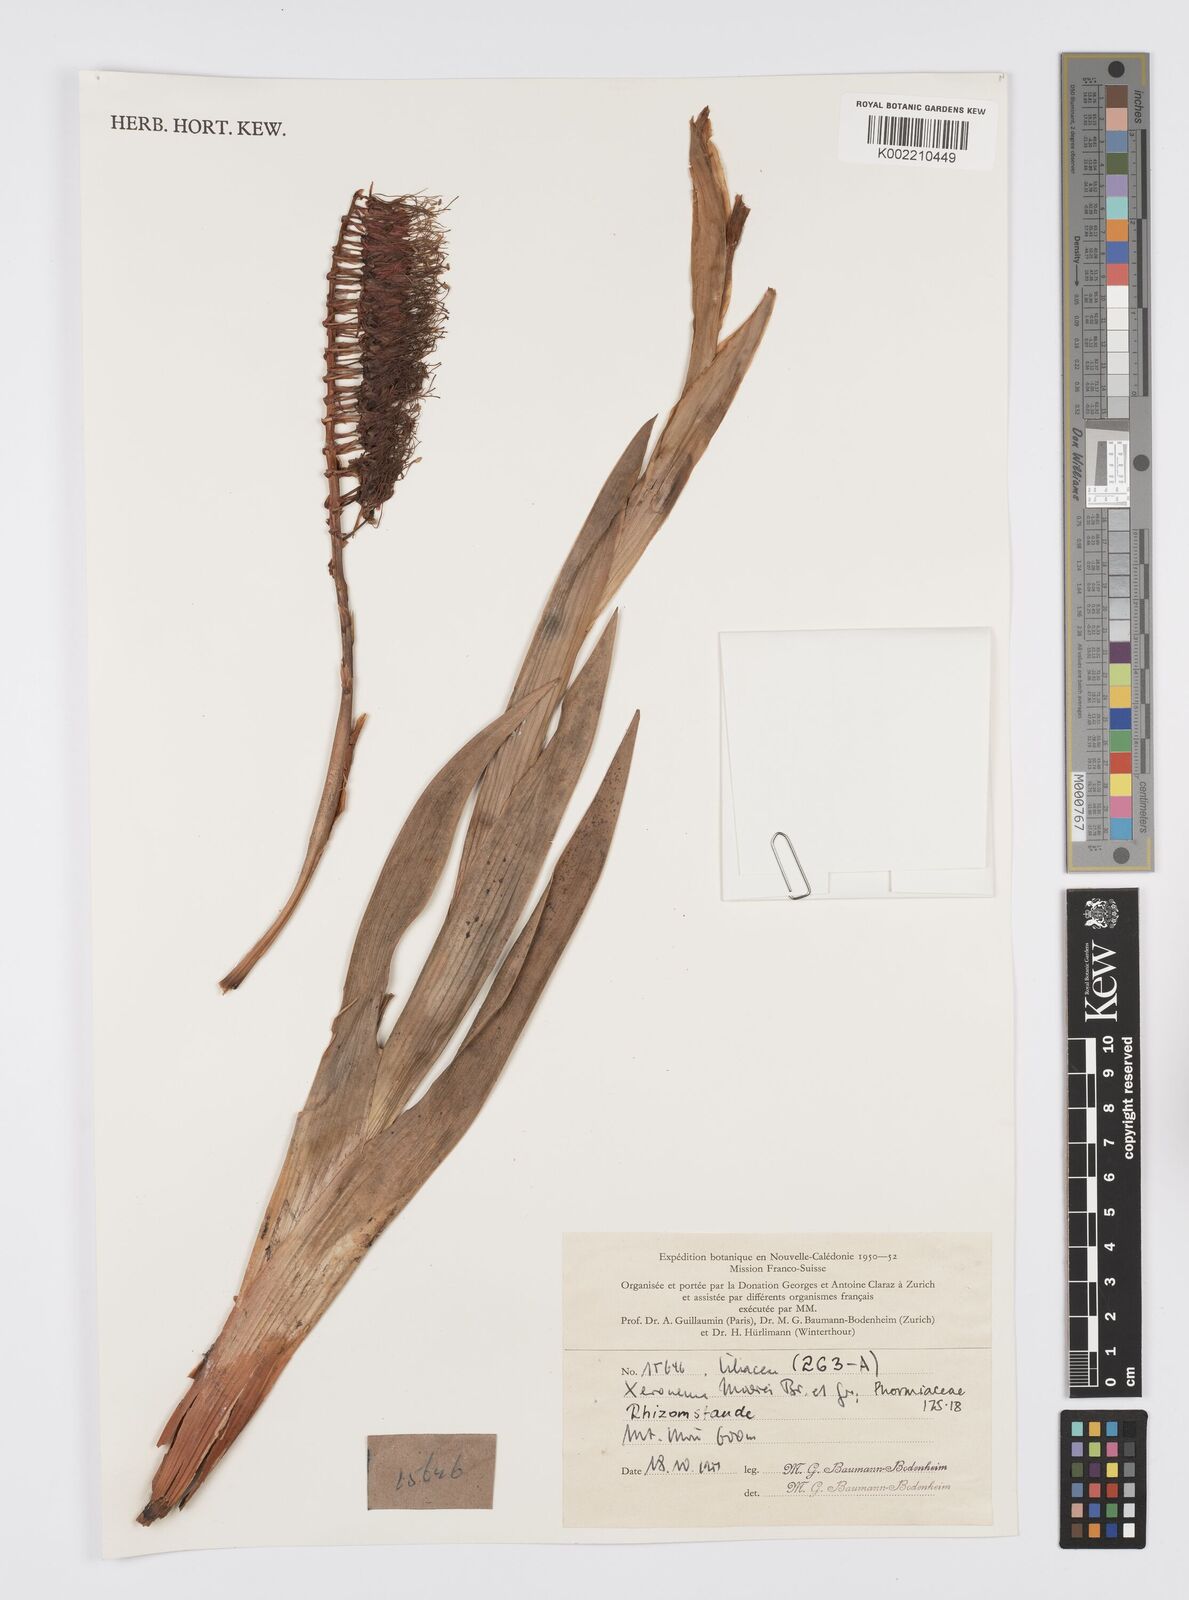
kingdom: Plantae
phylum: Tracheophyta
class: Liliopsida
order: Asparagales
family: Xeronemataceae
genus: Xeronema
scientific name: Xeronema moorei
